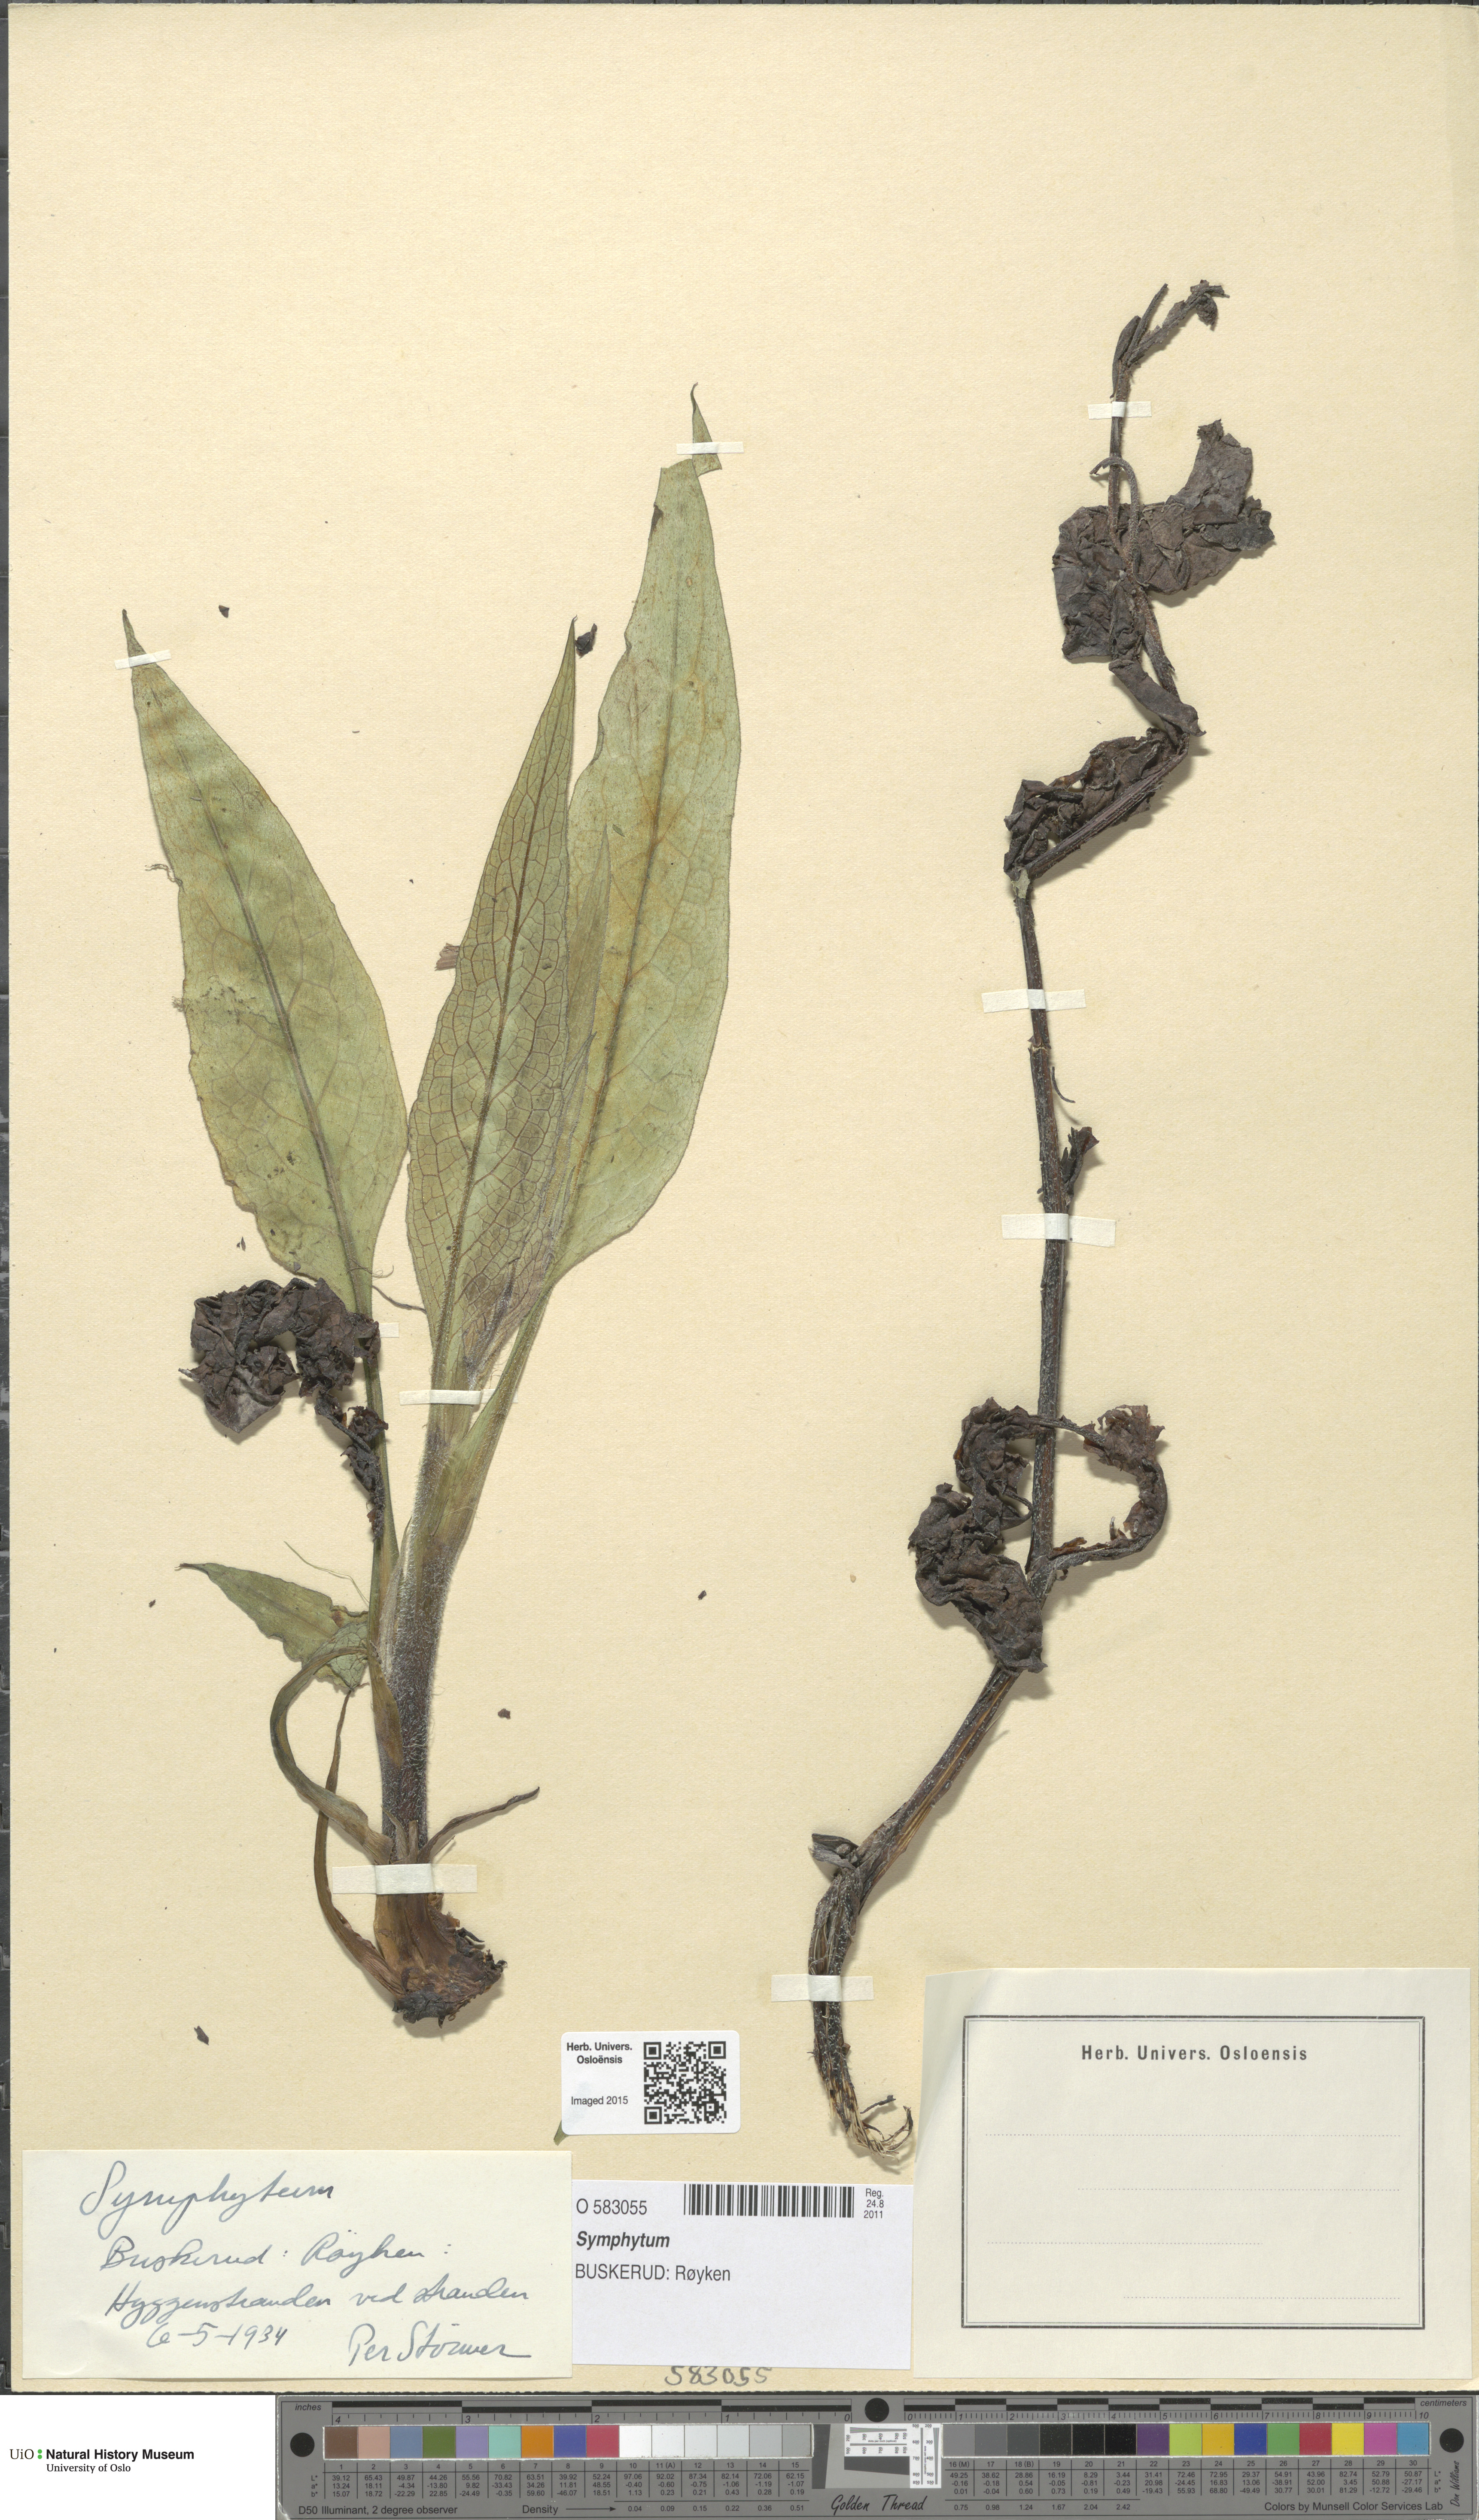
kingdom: Plantae
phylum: Tracheophyta
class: Magnoliopsida
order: Boraginales
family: Boraginaceae
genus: Symphytum
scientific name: Symphytum
